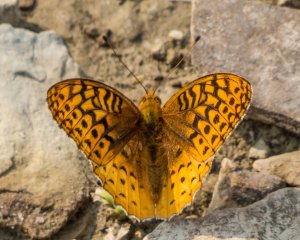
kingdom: Animalia
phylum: Arthropoda
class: Insecta
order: Lepidoptera
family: Nymphalidae
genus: Speyeria
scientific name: Speyeria cybele
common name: Great Spangled Fritillary
